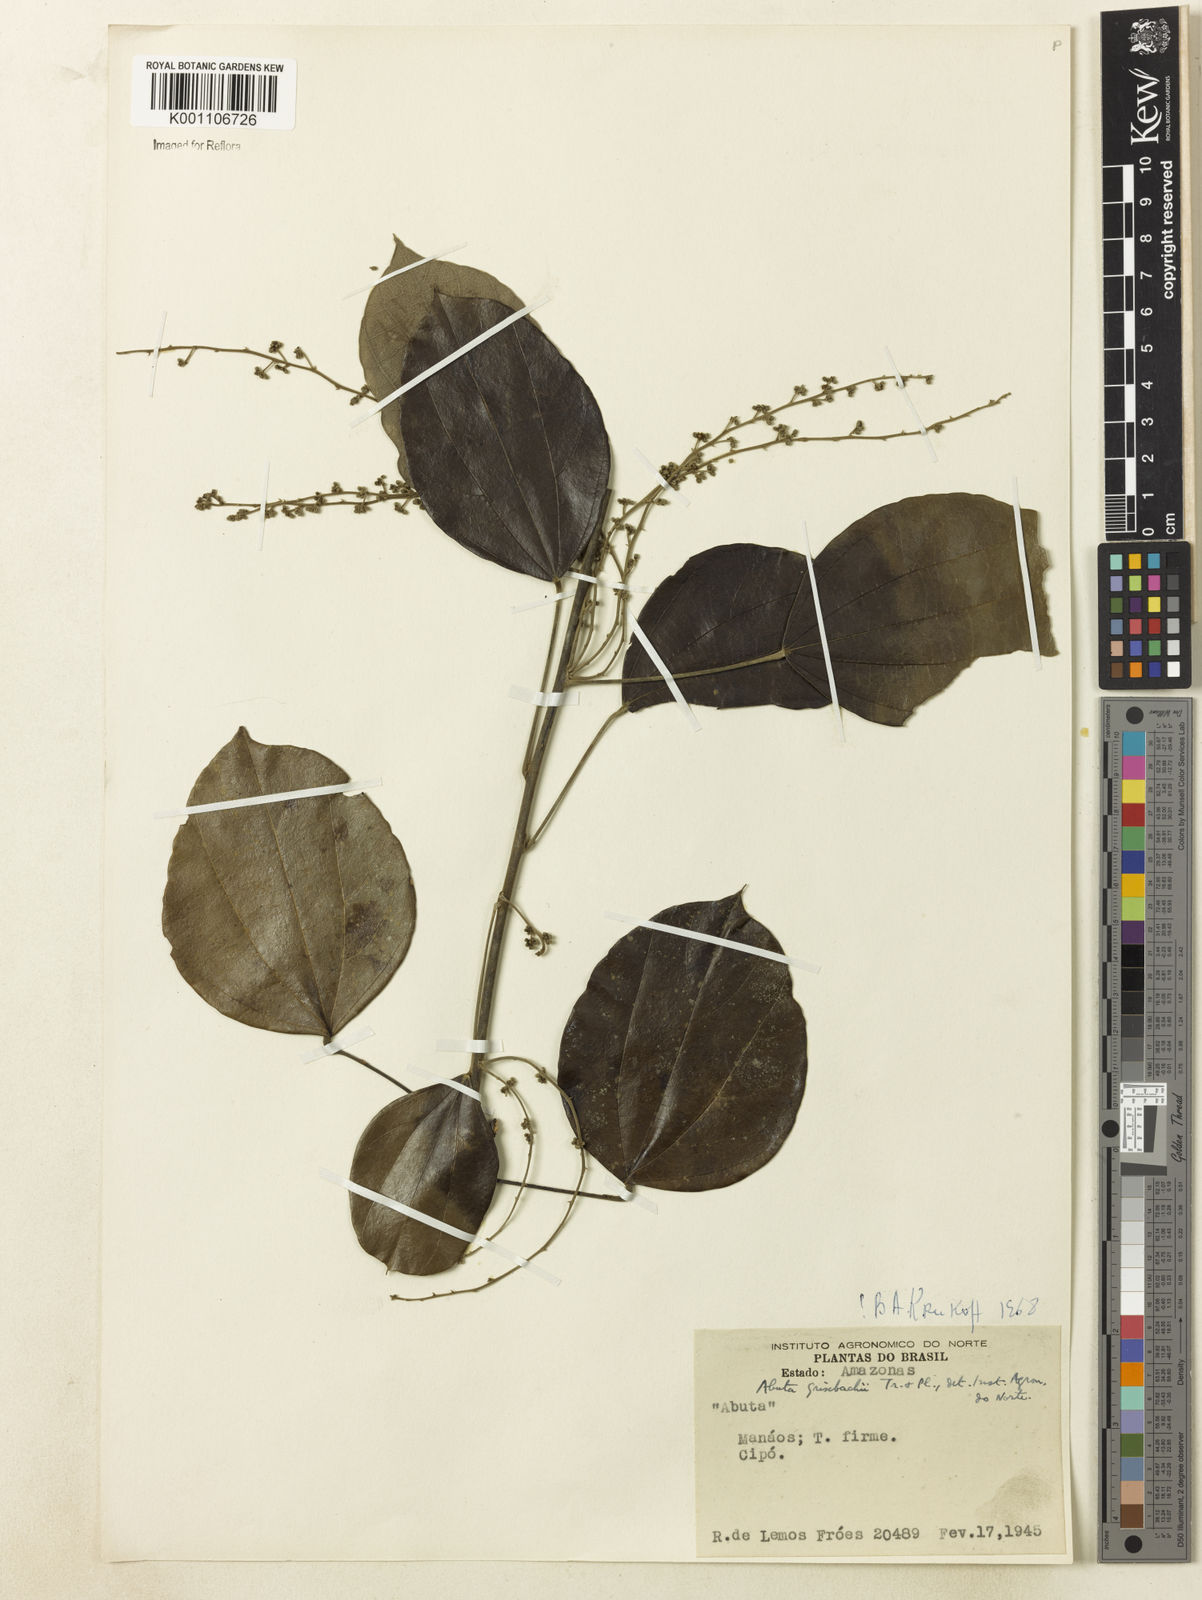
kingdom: Plantae
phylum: Tracheophyta
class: Magnoliopsida
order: Ranunculales
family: Menispermaceae
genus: Abuta
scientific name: Abuta grisebachii
